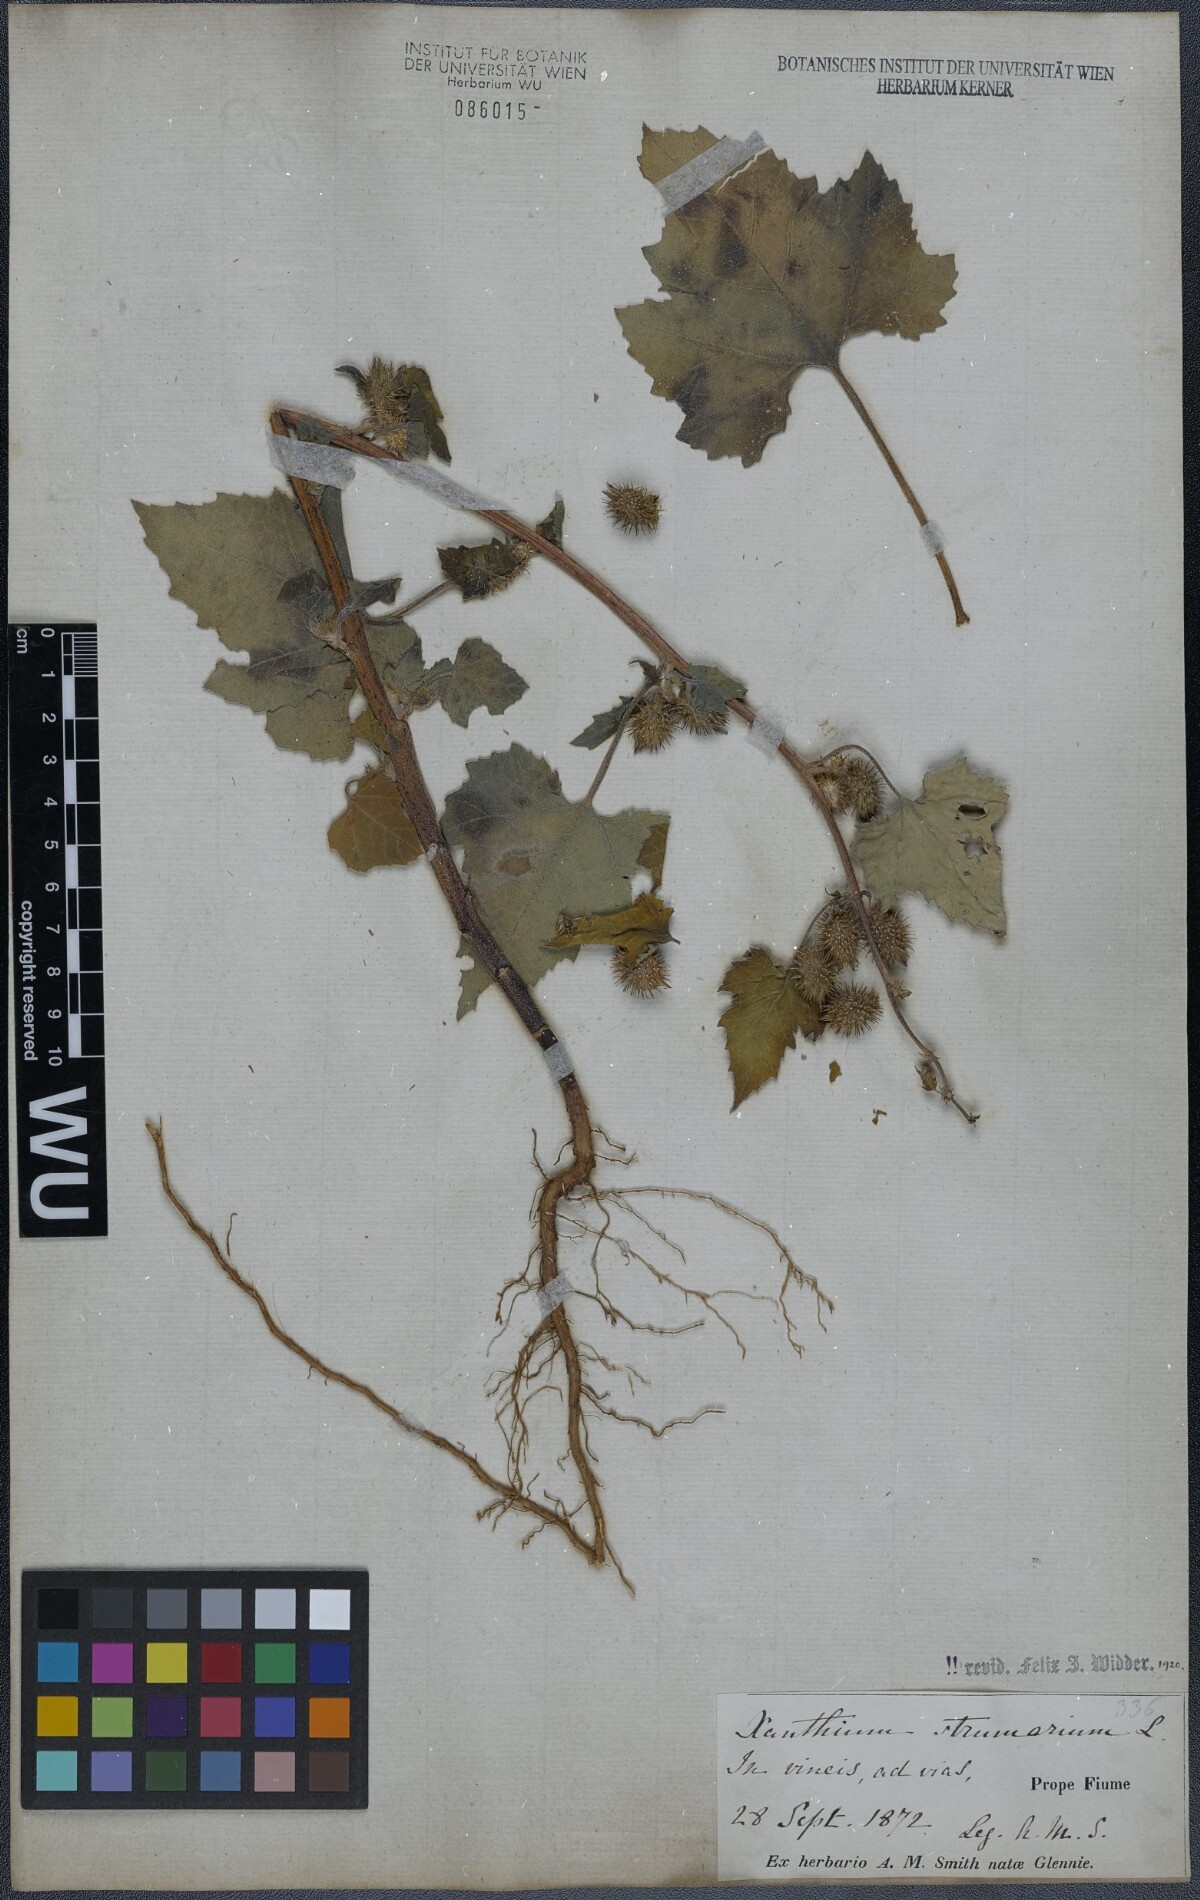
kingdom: Plantae
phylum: Tracheophyta
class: Magnoliopsida
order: Asterales
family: Asteraceae
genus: Xanthium
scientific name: Xanthium strumarium
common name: Rough cocklebur
